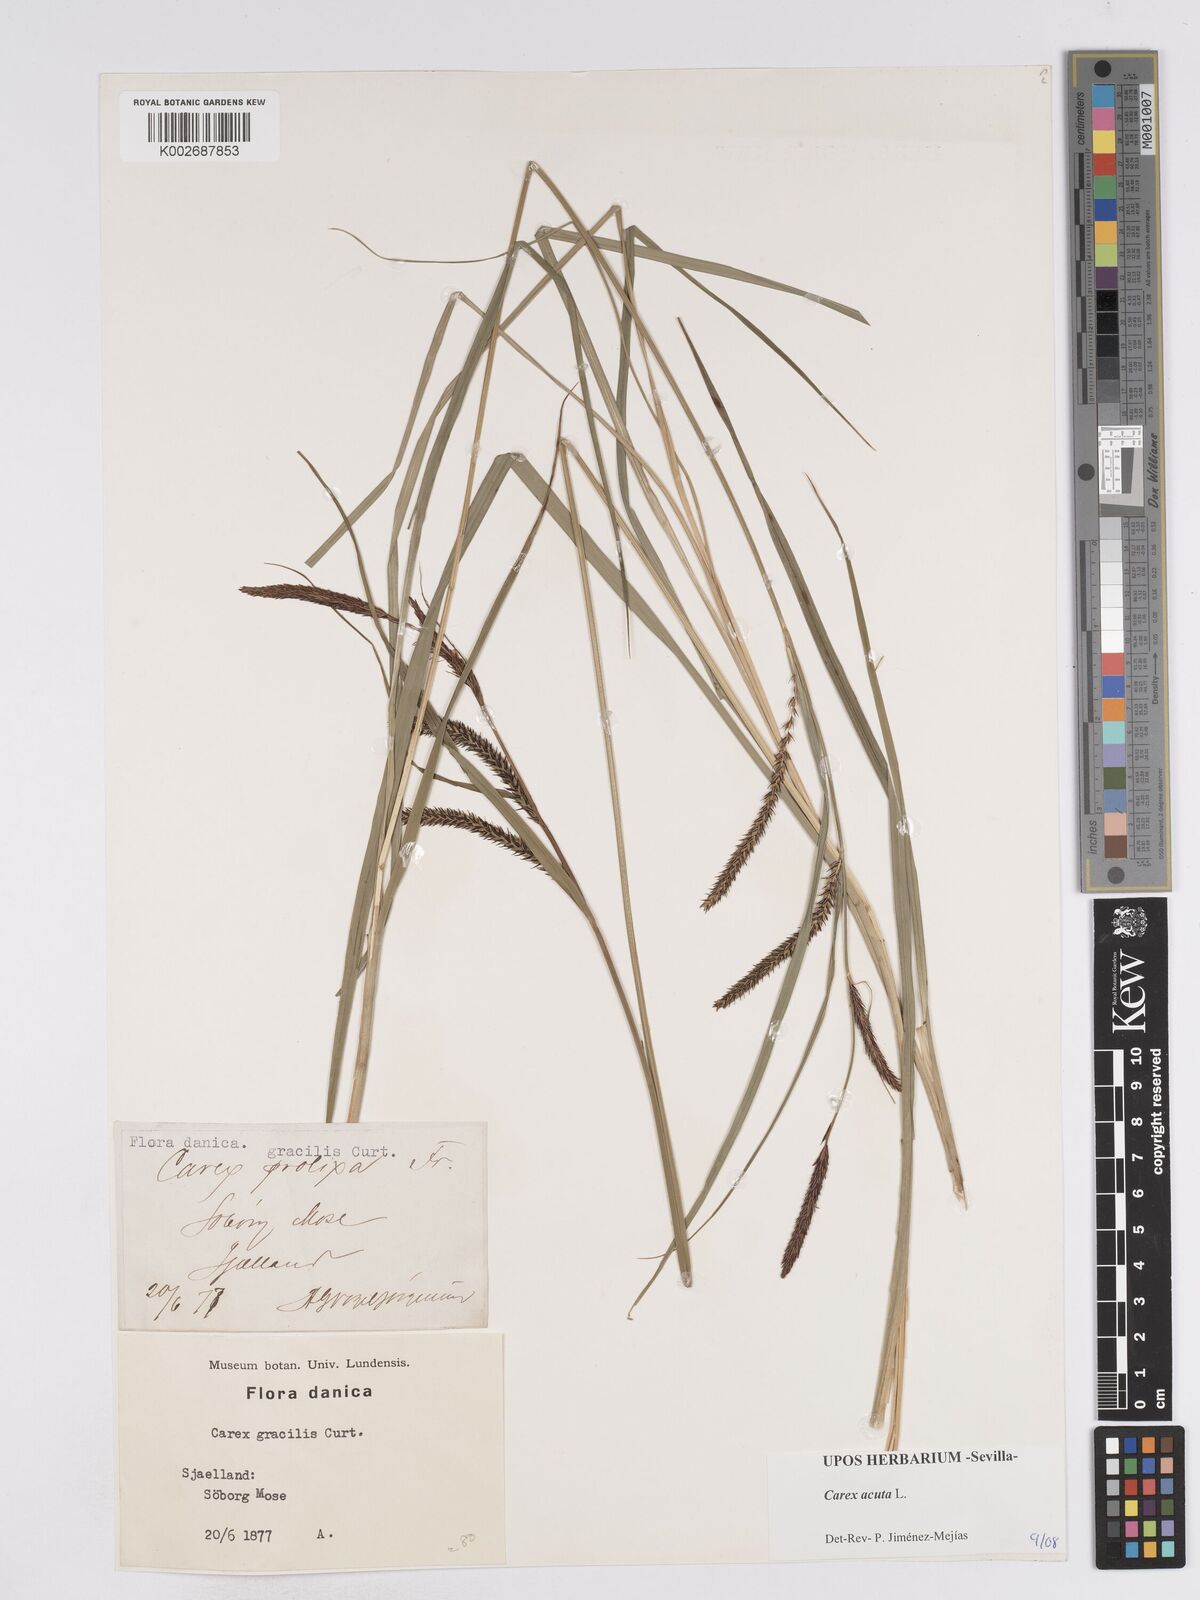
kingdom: Plantae
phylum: Tracheophyta
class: Liliopsida
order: Poales
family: Cyperaceae
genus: Carex
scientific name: Carex acuta
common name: Slender tufted-sedge
